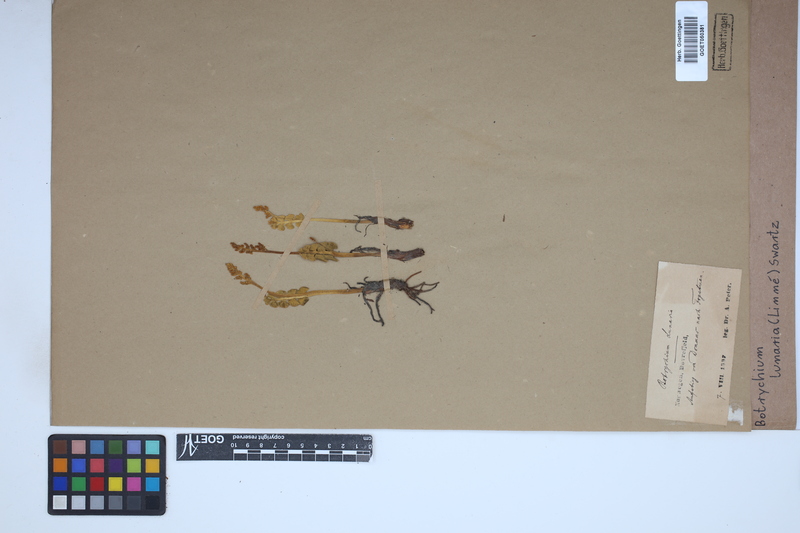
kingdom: Plantae
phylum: Tracheophyta
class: Polypodiopsida
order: Ophioglossales
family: Ophioglossaceae
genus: Botrychium
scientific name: Botrychium lunaria
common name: Moonwort
